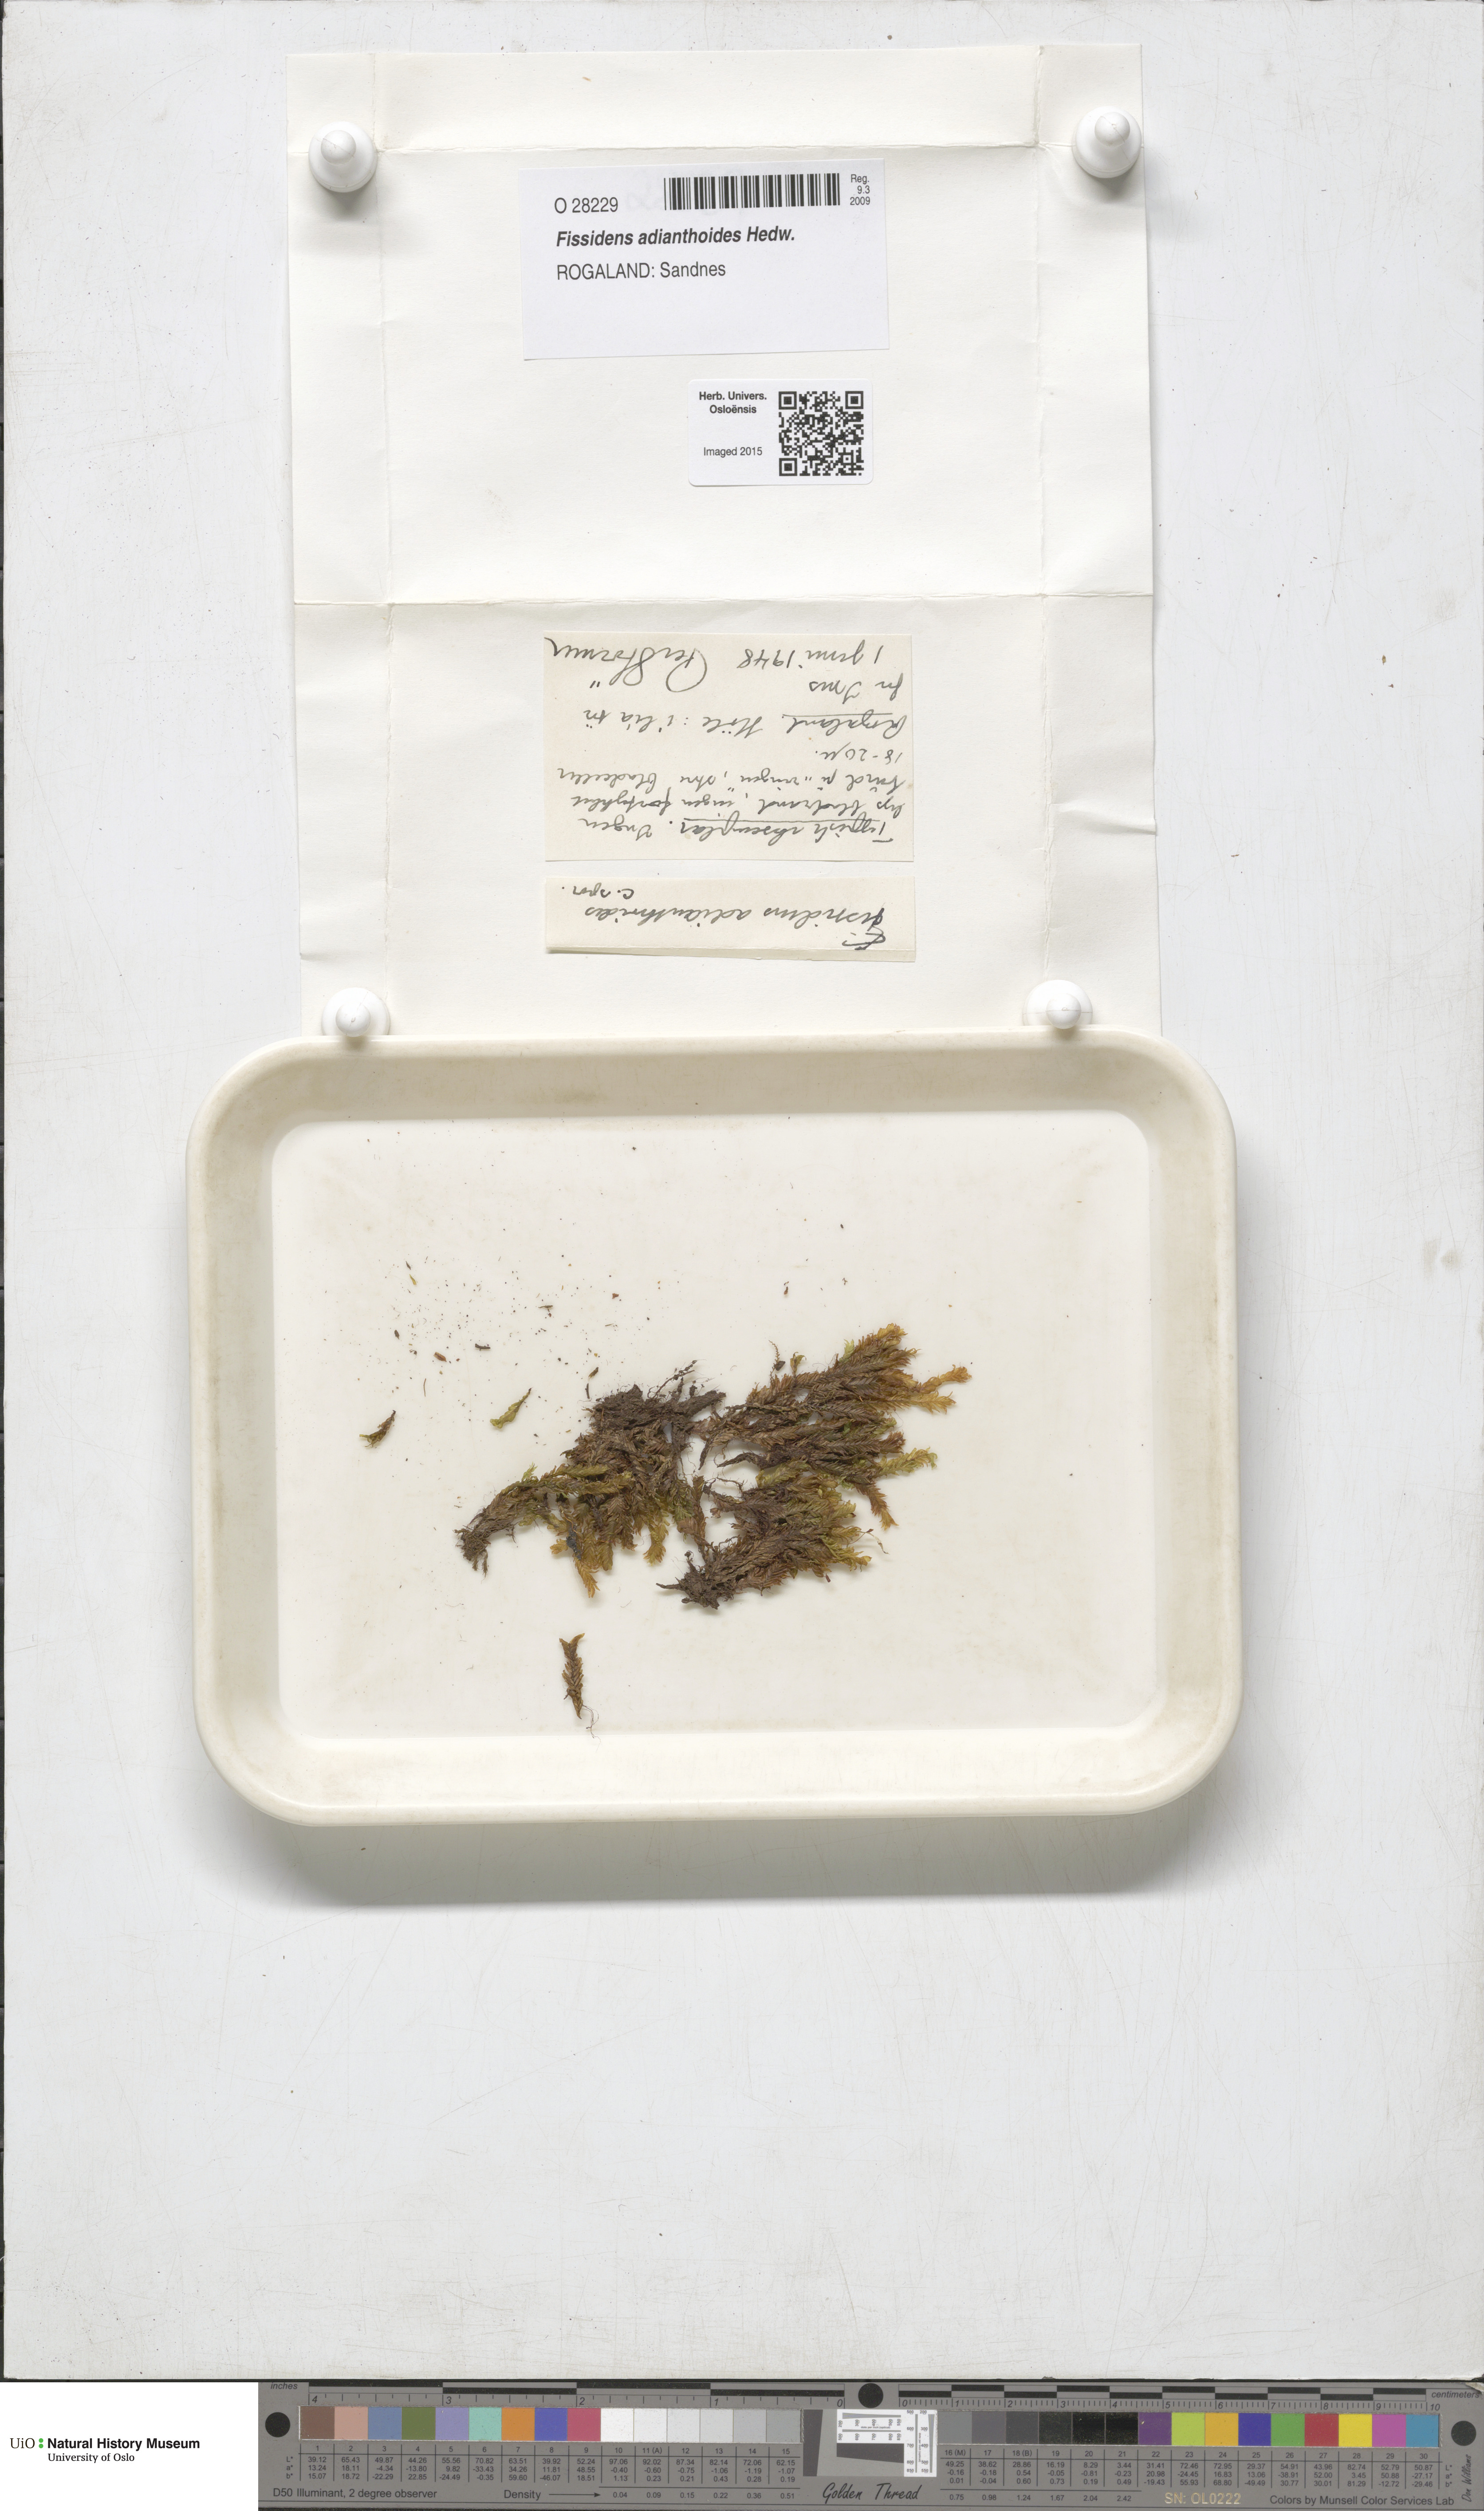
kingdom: Plantae
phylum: Bryophyta
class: Bryopsida
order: Dicranales
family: Fissidentaceae
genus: Fissidens
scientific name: Fissidens adianthoides
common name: Maidenhair pocket moss
